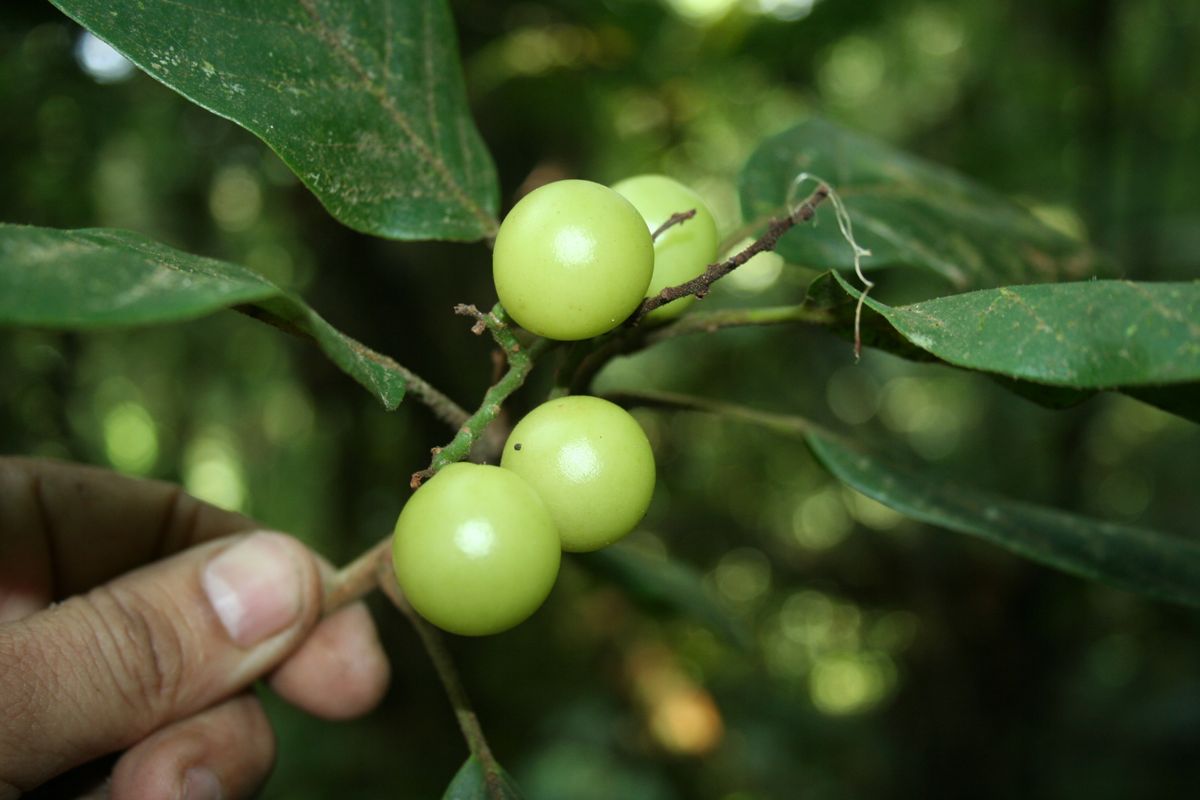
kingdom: Plantae
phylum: Tracheophyta
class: Magnoliopsida
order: Proteales
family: Sabiaceae
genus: Meliosma
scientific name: Meliosma echeverriae
